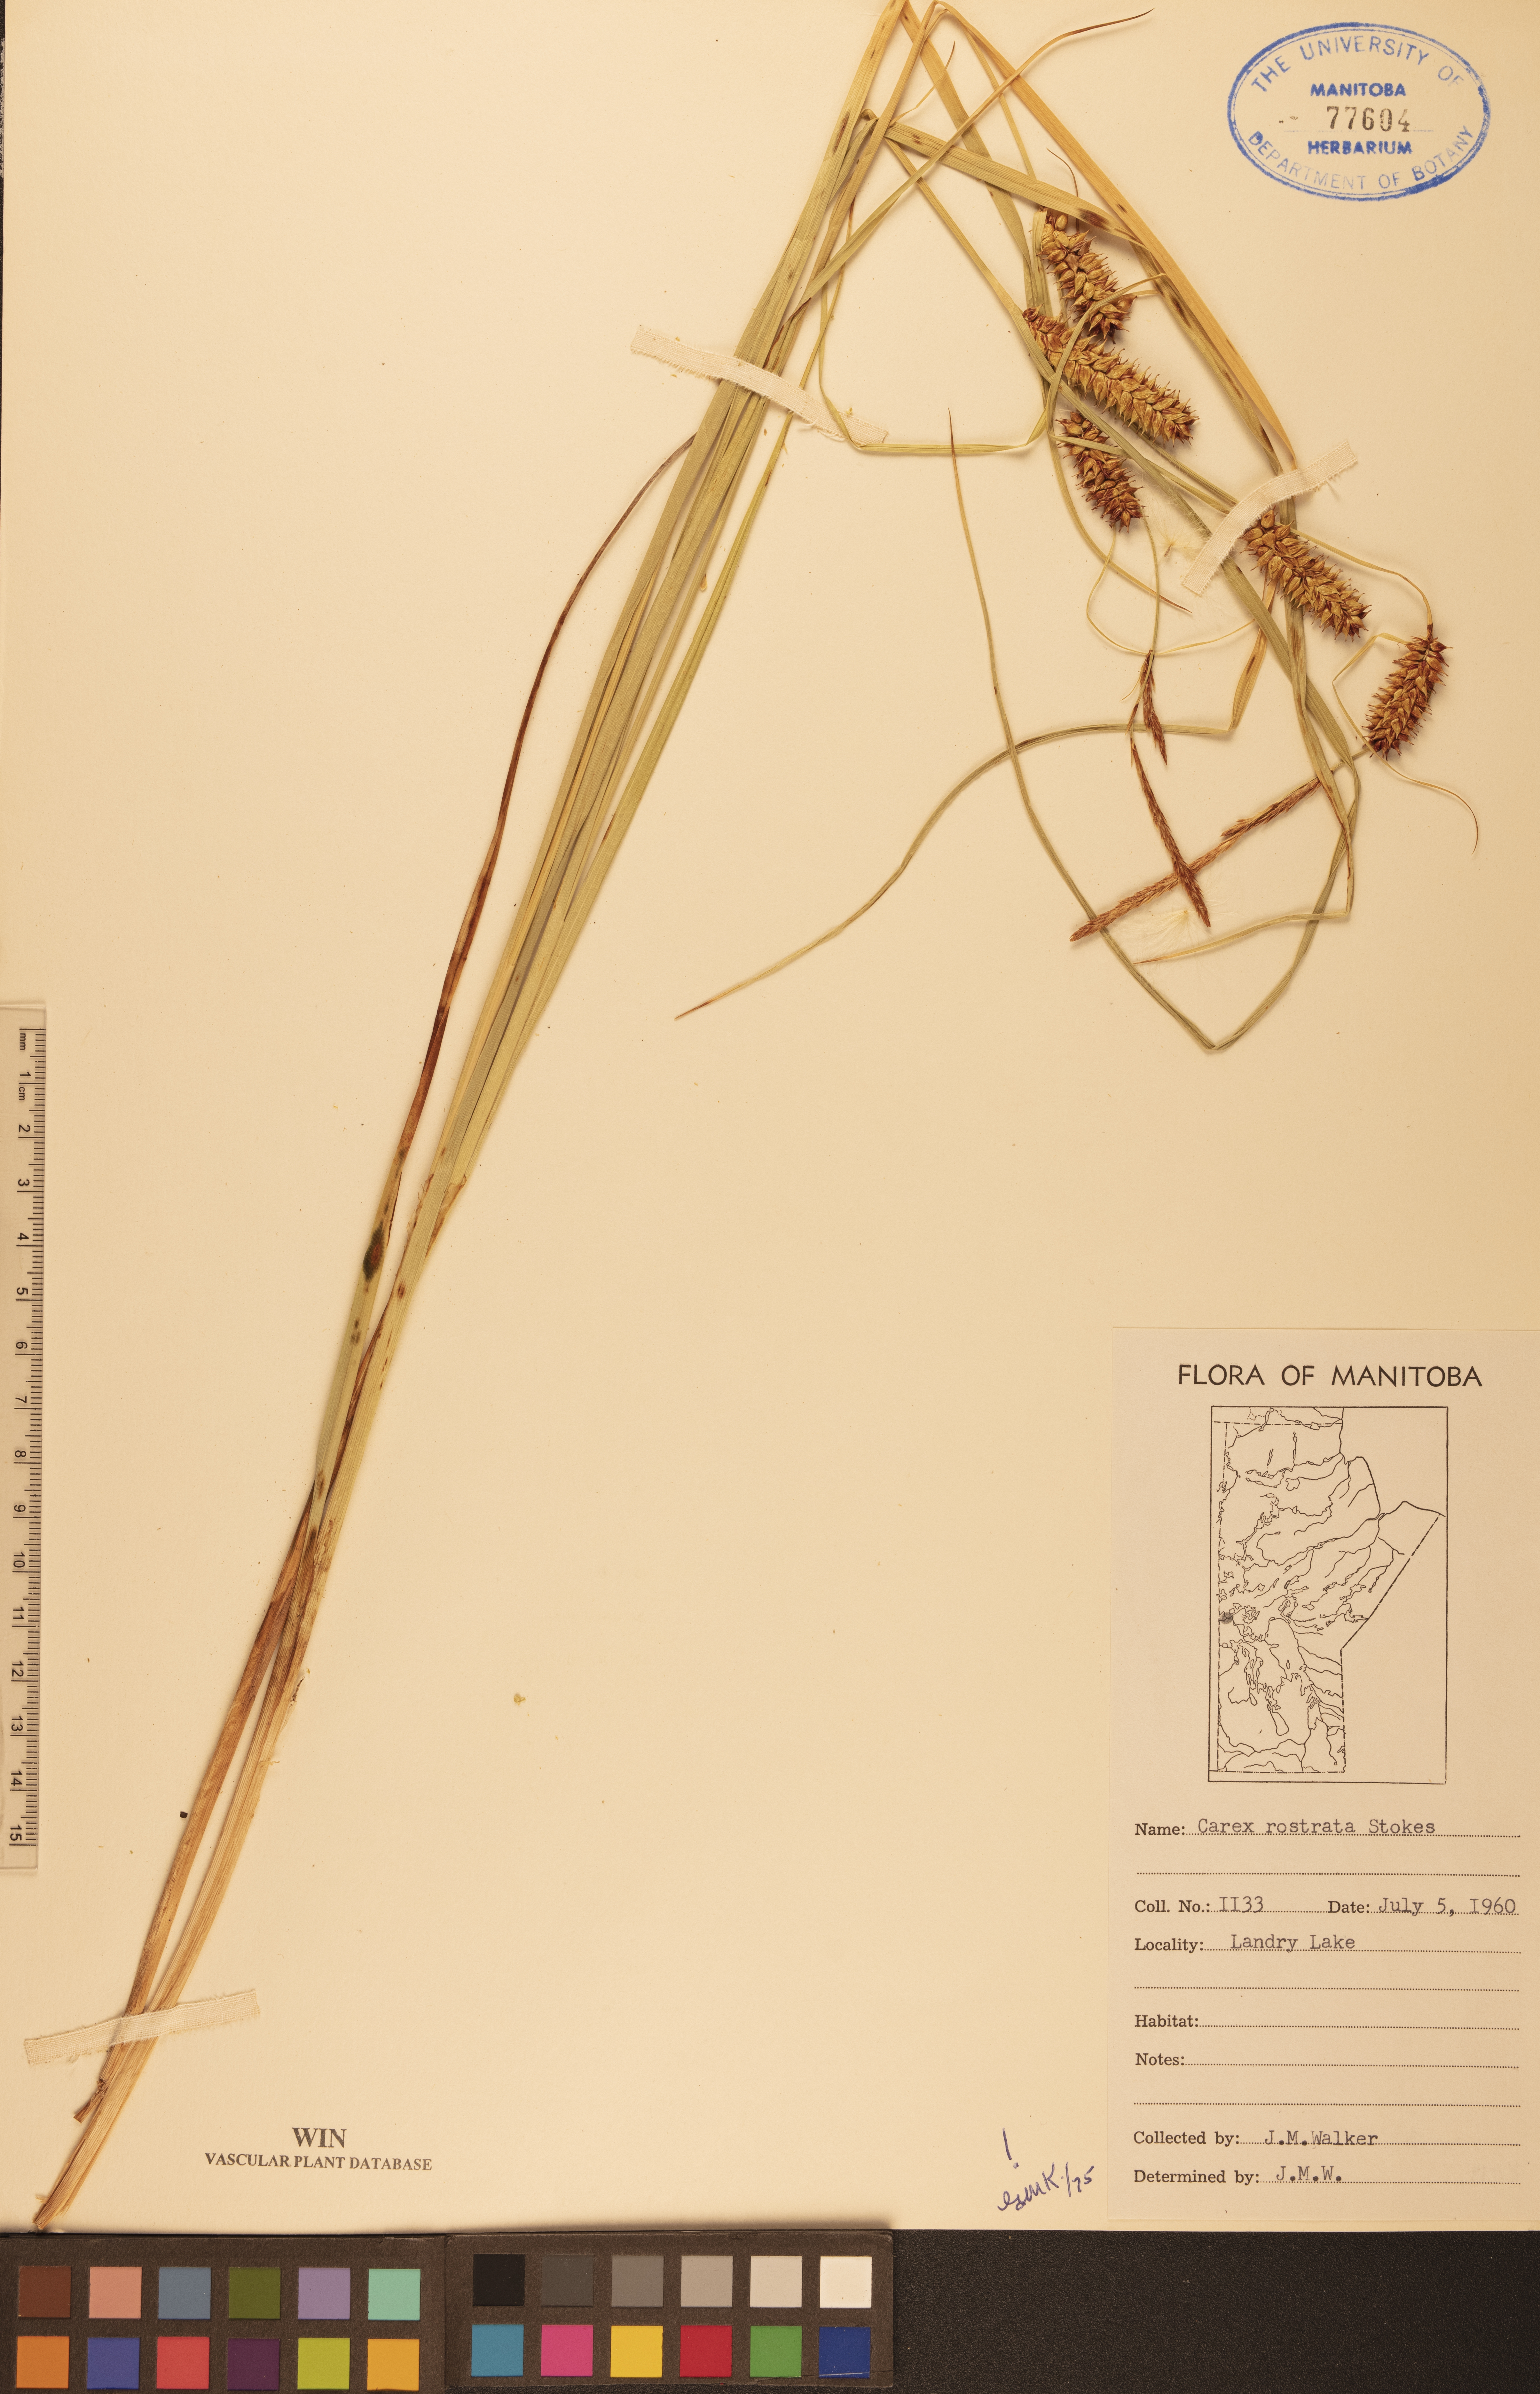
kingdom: Plantae
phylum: Tracheophyta
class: Liliopsida
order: Poales
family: Cyperaceae
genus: Carex
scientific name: Carex rostrata
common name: Bottle sedge
